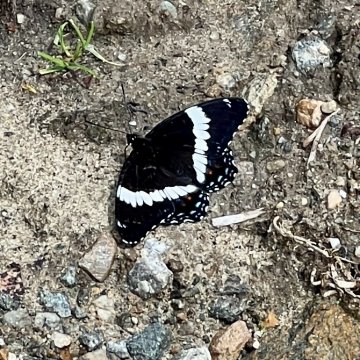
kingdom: Animalia
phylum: Arthropoda
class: Insecta
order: Lepidoptera
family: Nymphalidae
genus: Limenitis
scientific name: Limenitis arthemis
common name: Red-spotted Admiral
